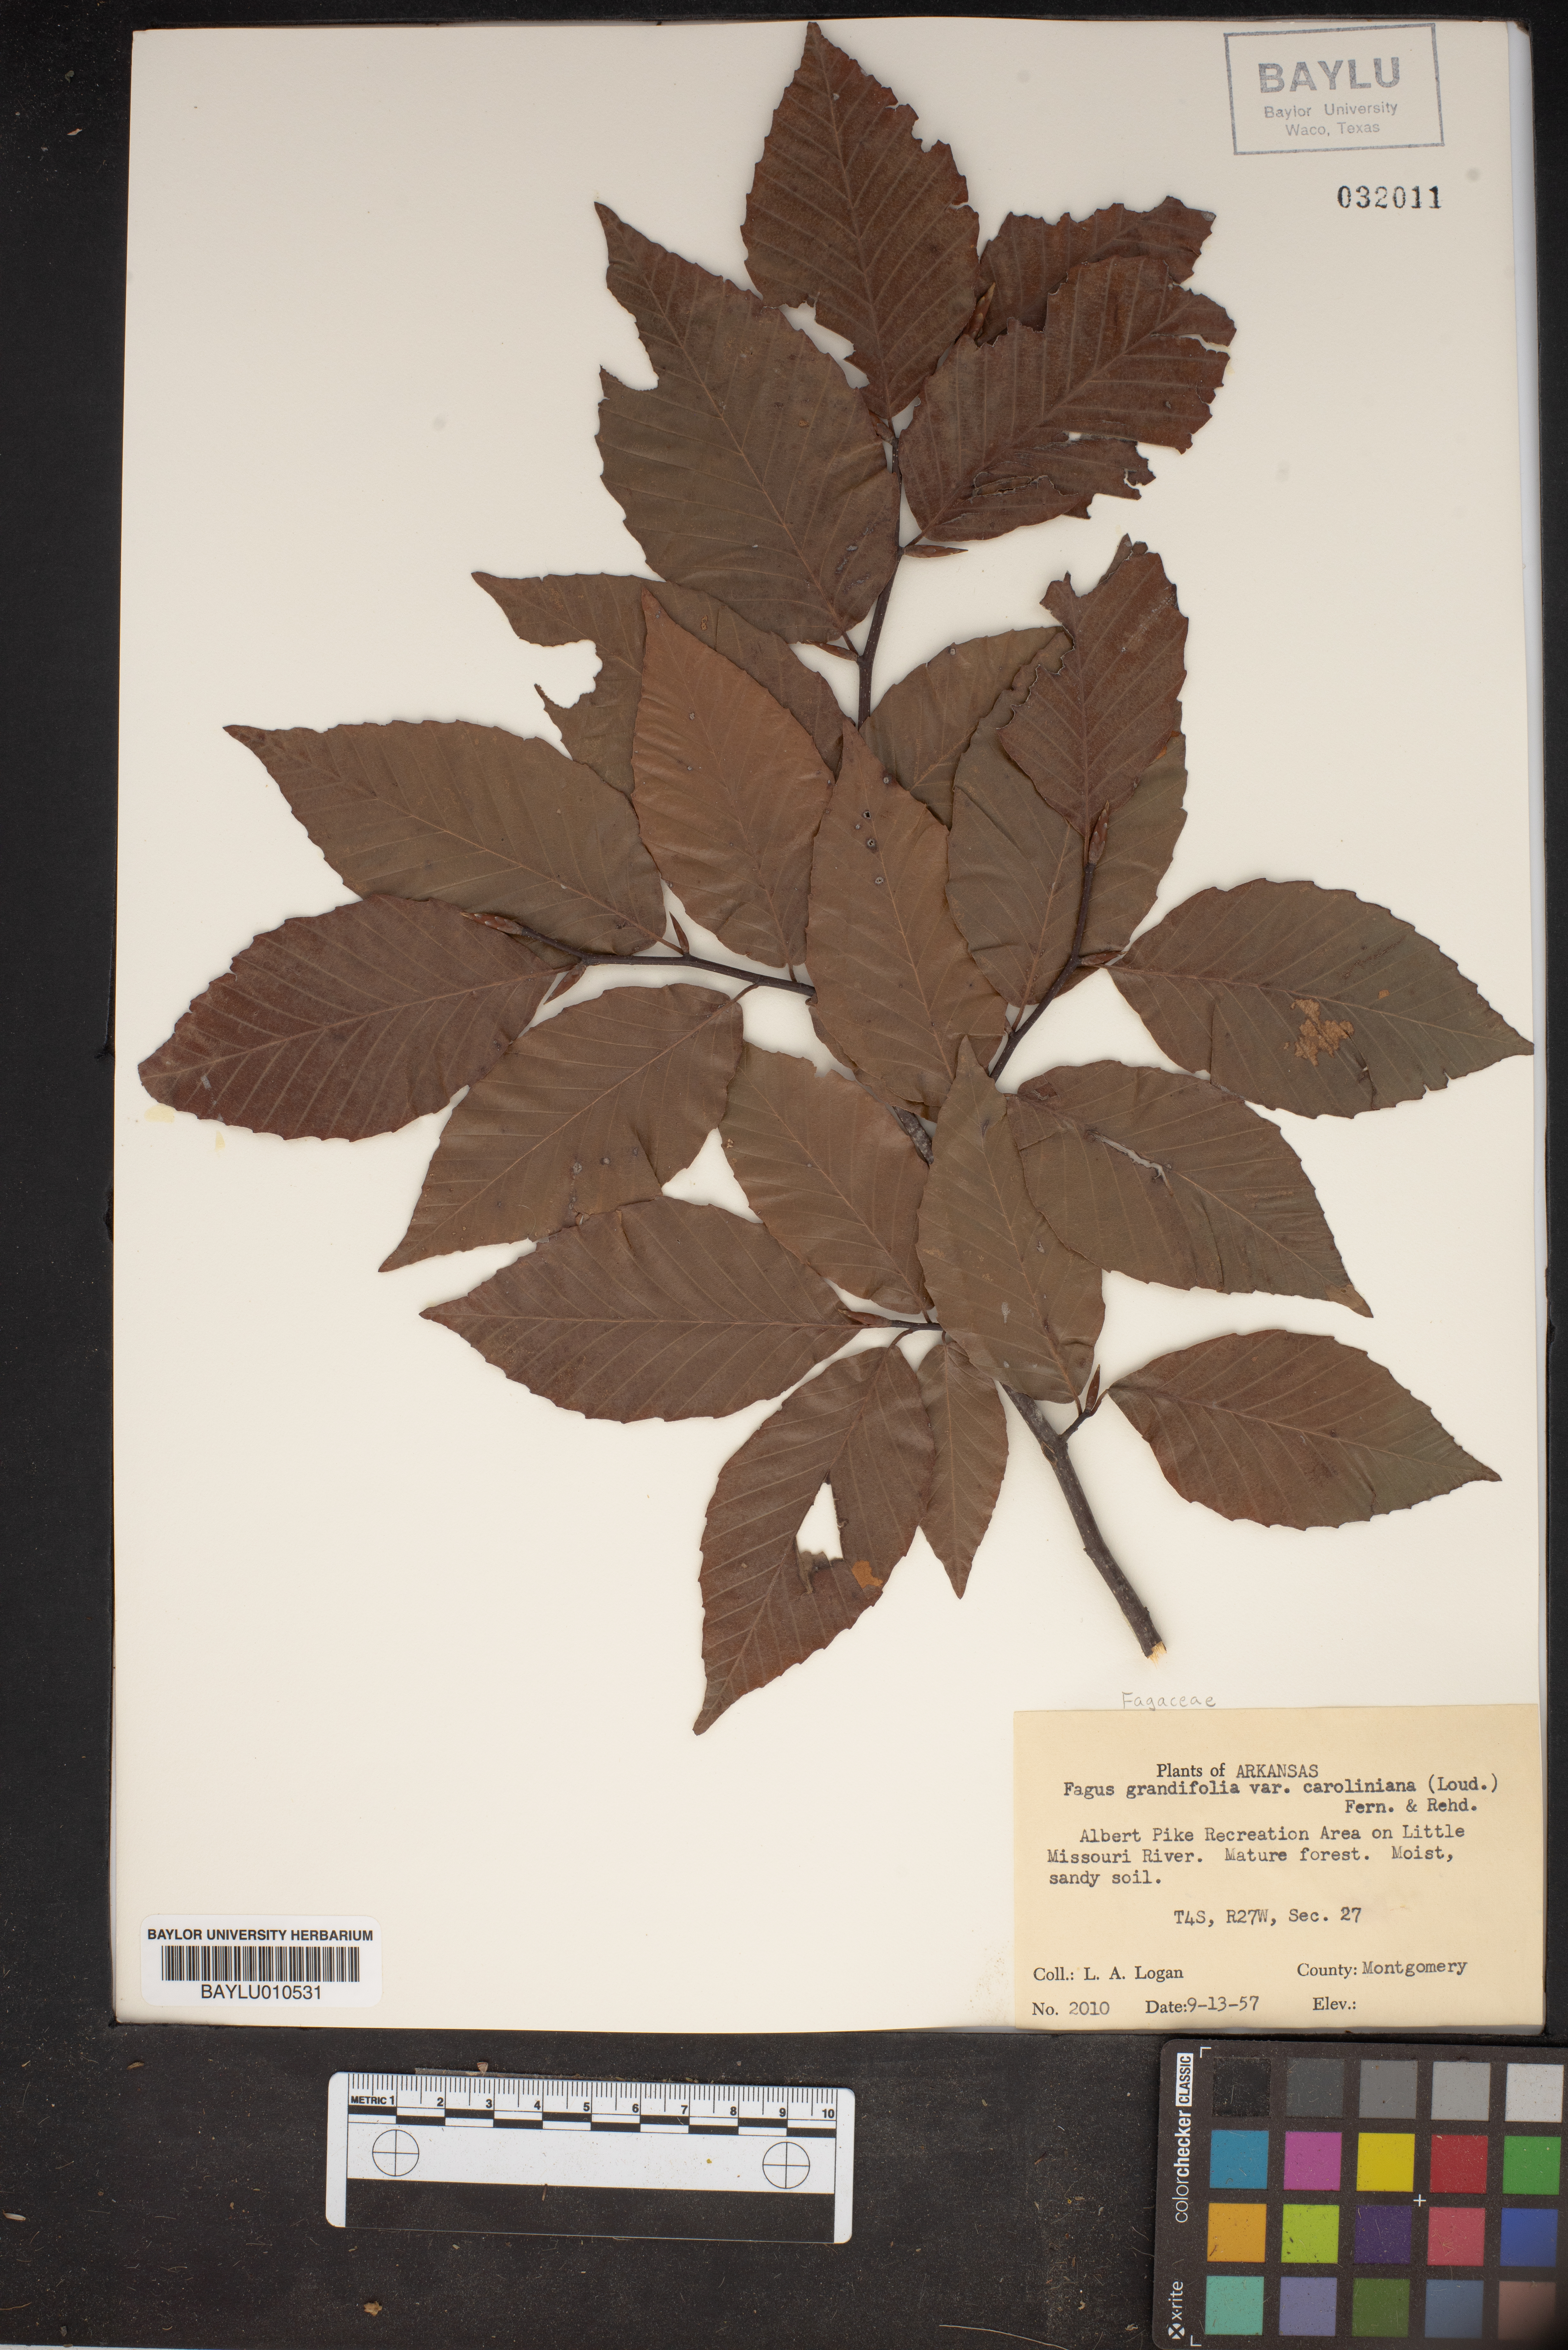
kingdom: Plantae
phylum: Tracheophyta
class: Magnoliopsida
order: Fagales
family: Fagaceae
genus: Fagus
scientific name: Fagus grandifolia
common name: American beech
